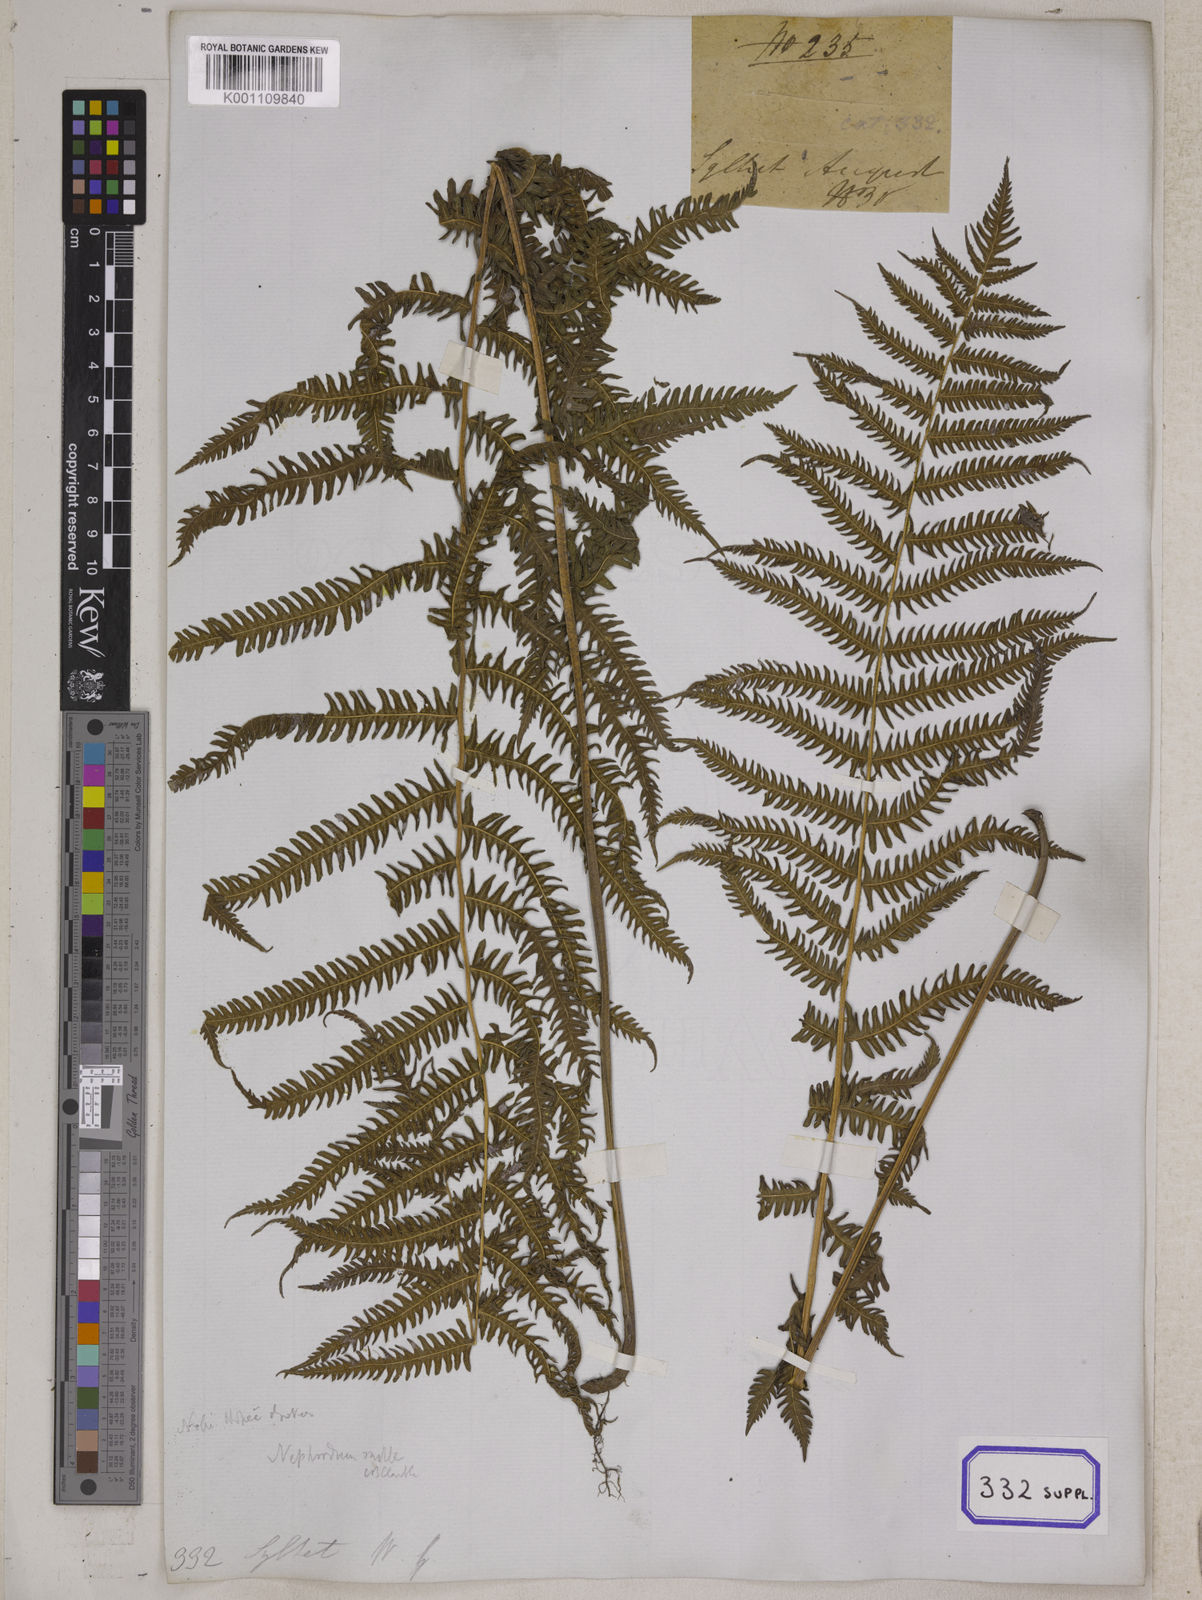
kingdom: Plantae
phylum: Tracheophyta
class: Polypodiopsida
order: Polypodiales
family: Thelypteridaceae
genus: Pseudocyclosorus
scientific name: Pseudocyclosorus canus
